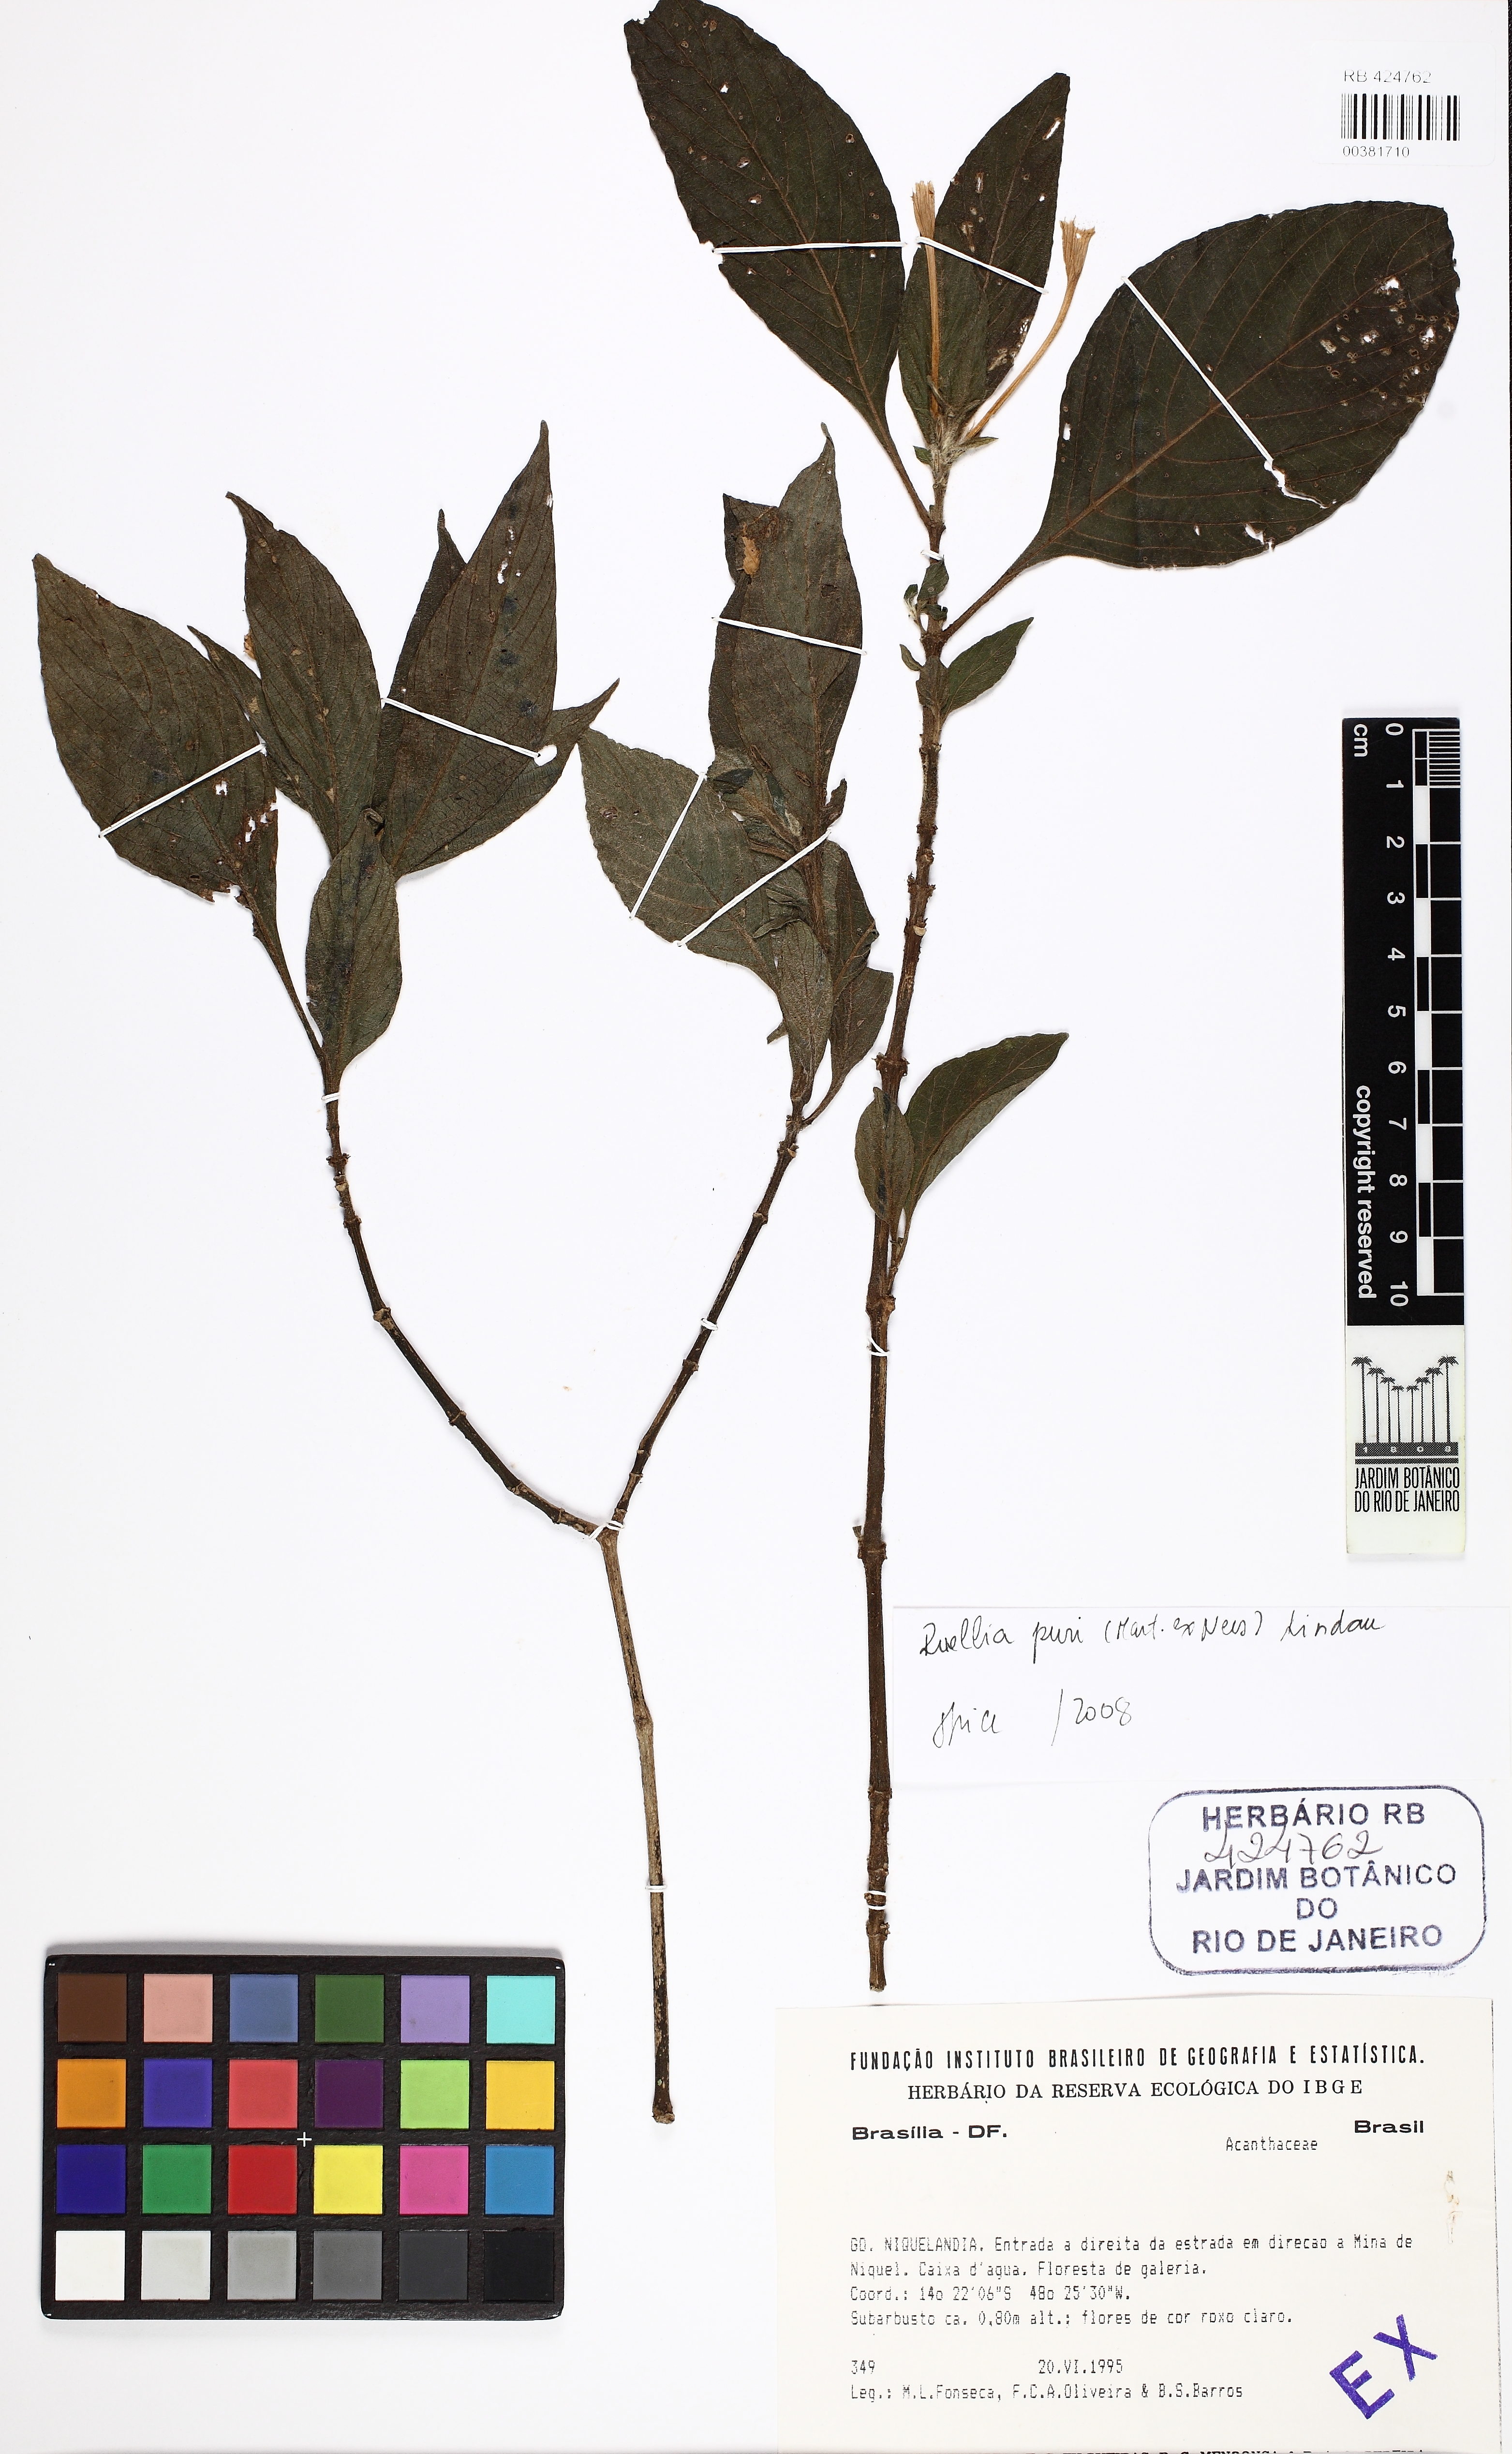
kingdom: Plantae
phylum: Tracheophyta
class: Magnoliopsida
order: Lamiales
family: Acanthaceae
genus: Ruellia
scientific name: Ruellia jussieuoides
